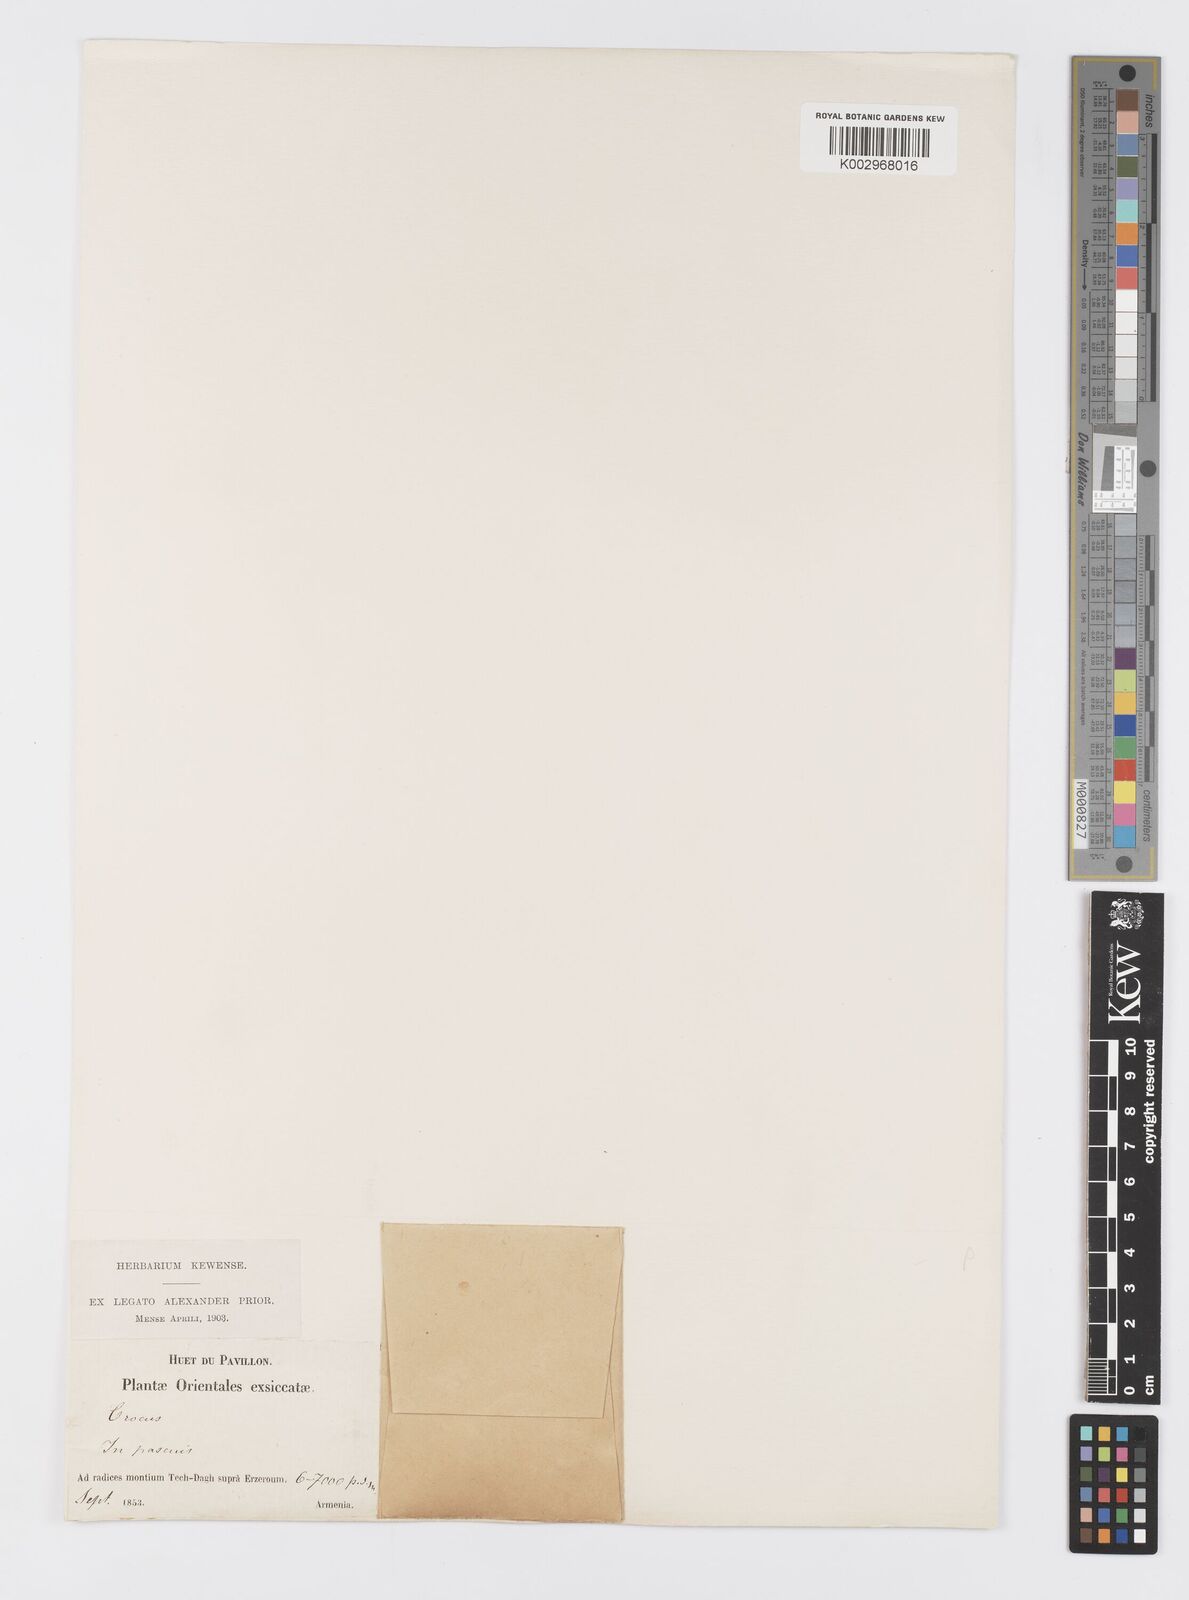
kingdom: Plantae
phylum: Tracheophyta
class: Liliopsida
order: Asparagales
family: Iridaceae
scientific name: Iridaceae
